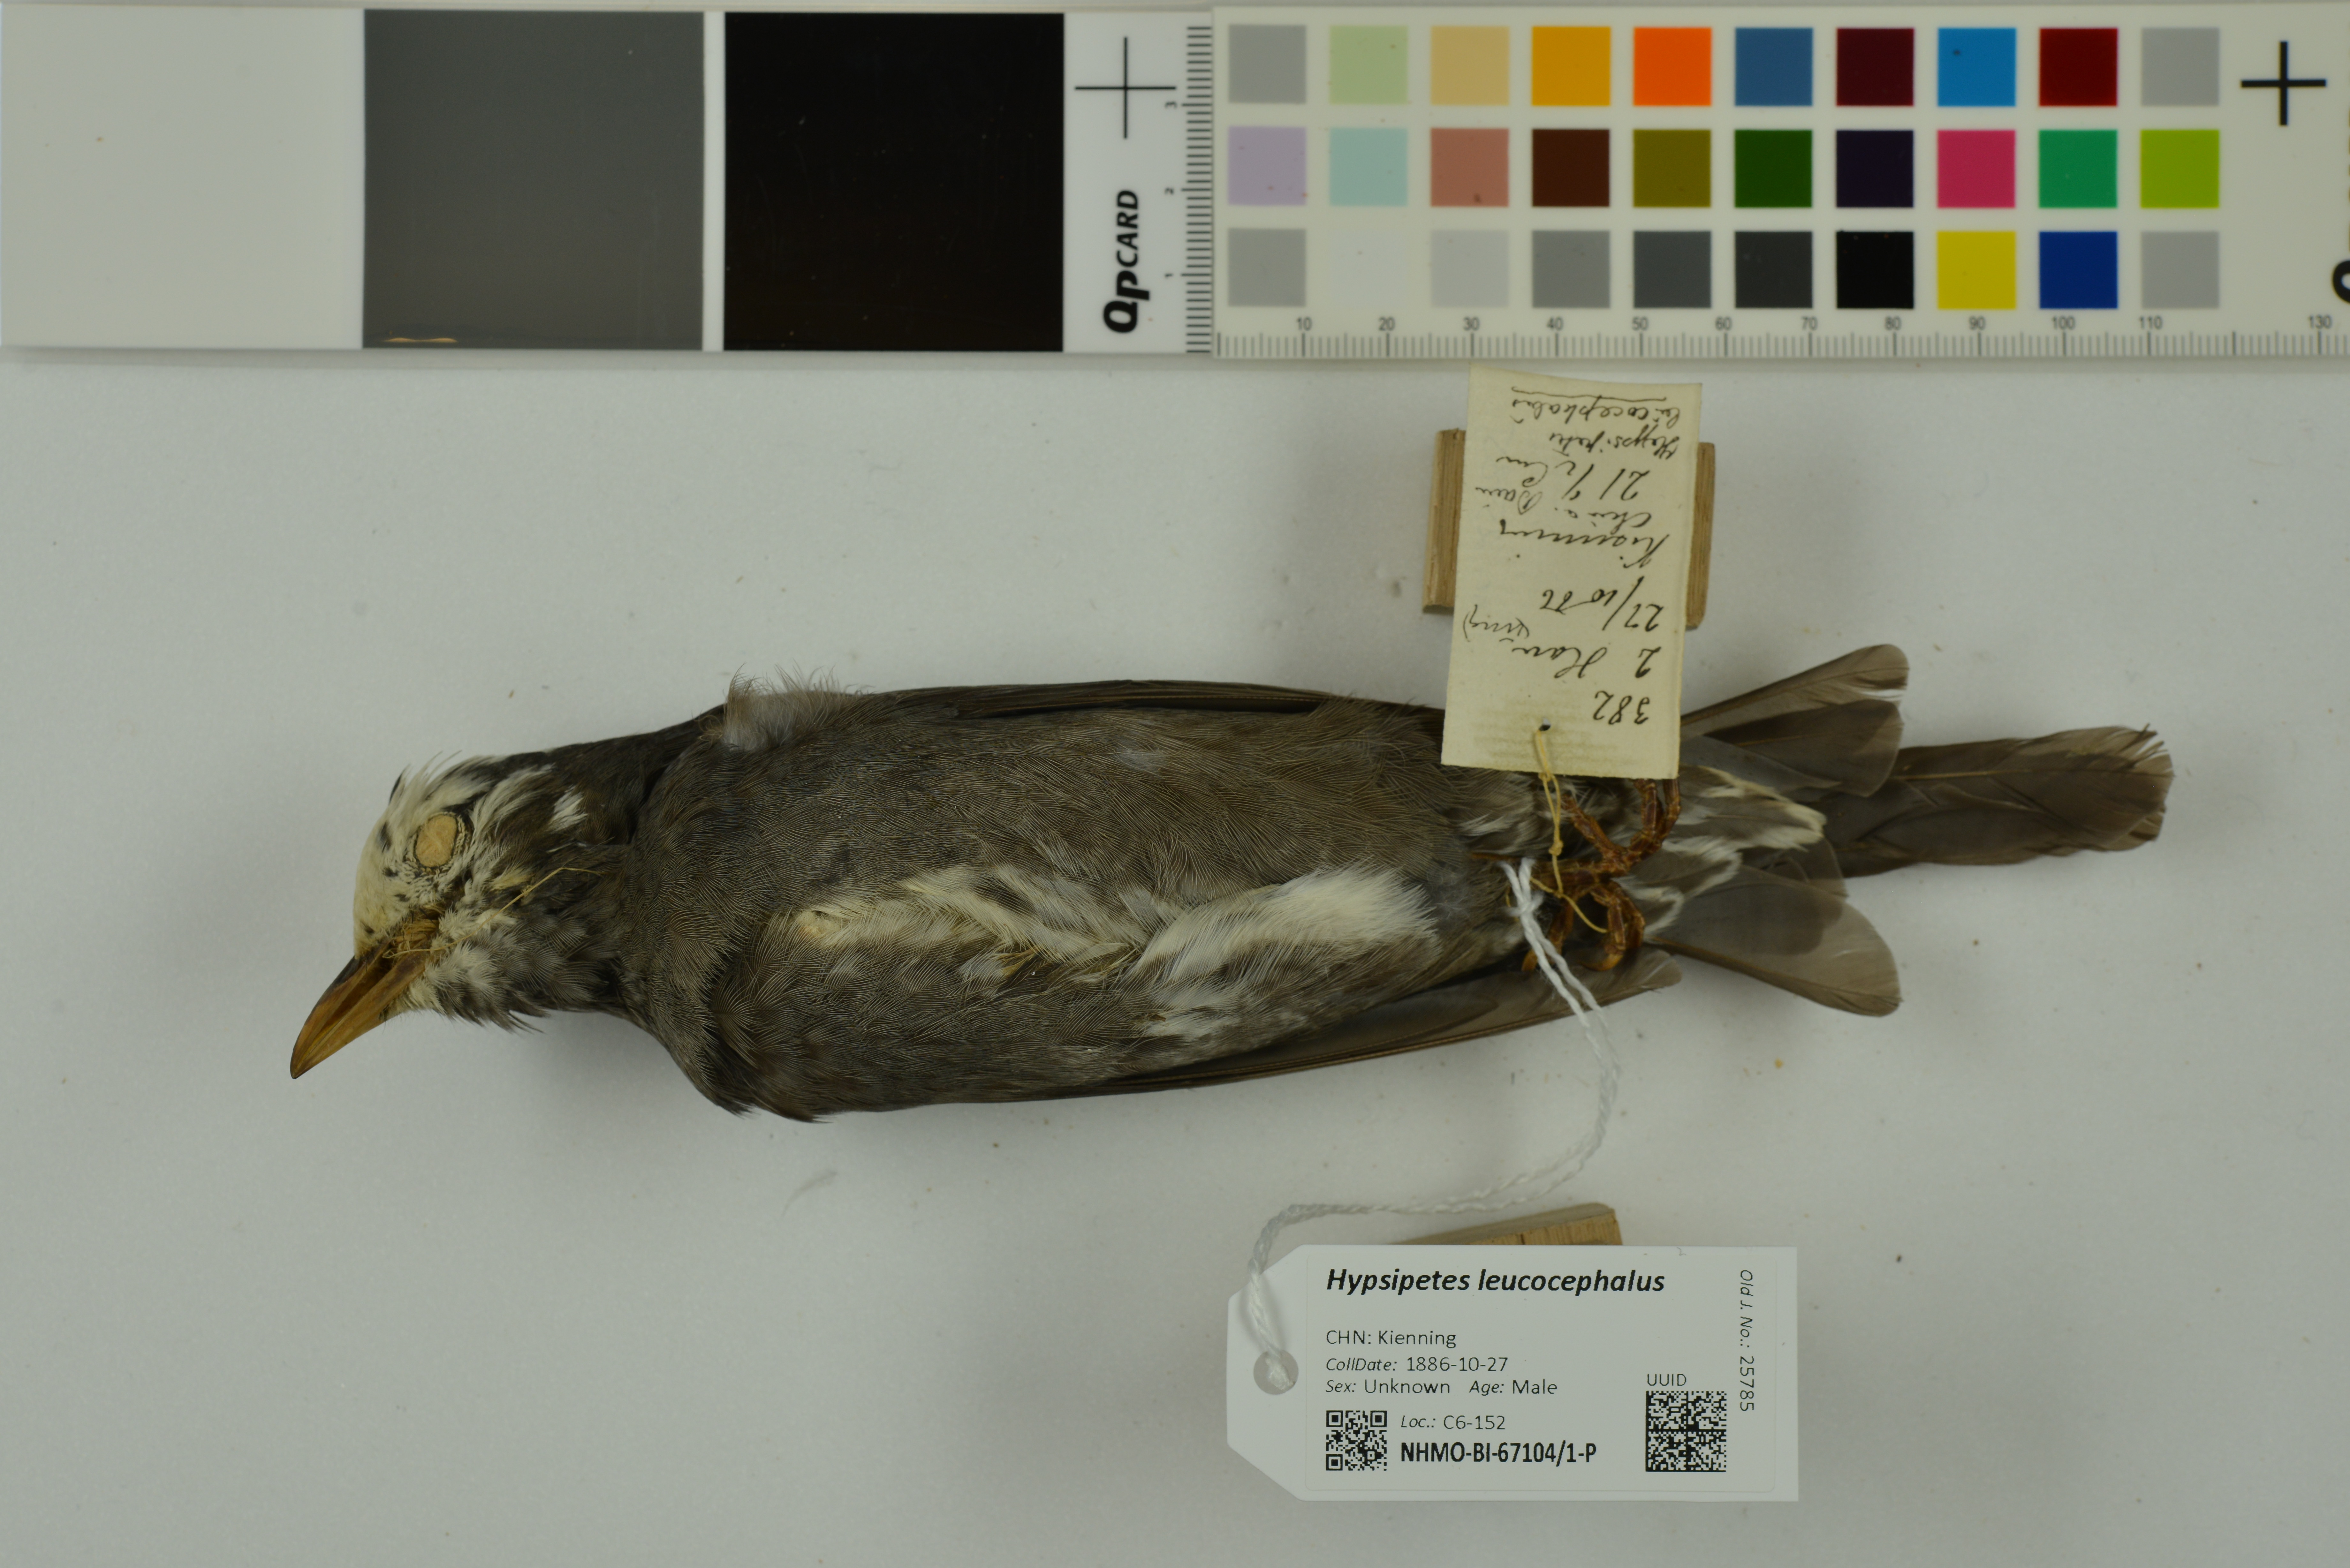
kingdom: Animalia
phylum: Chordata
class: Aves
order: Passeriformes
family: Pycnonotidae
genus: Hypsipetes
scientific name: Hypsipetes leucocephalus
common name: Black bulbul
